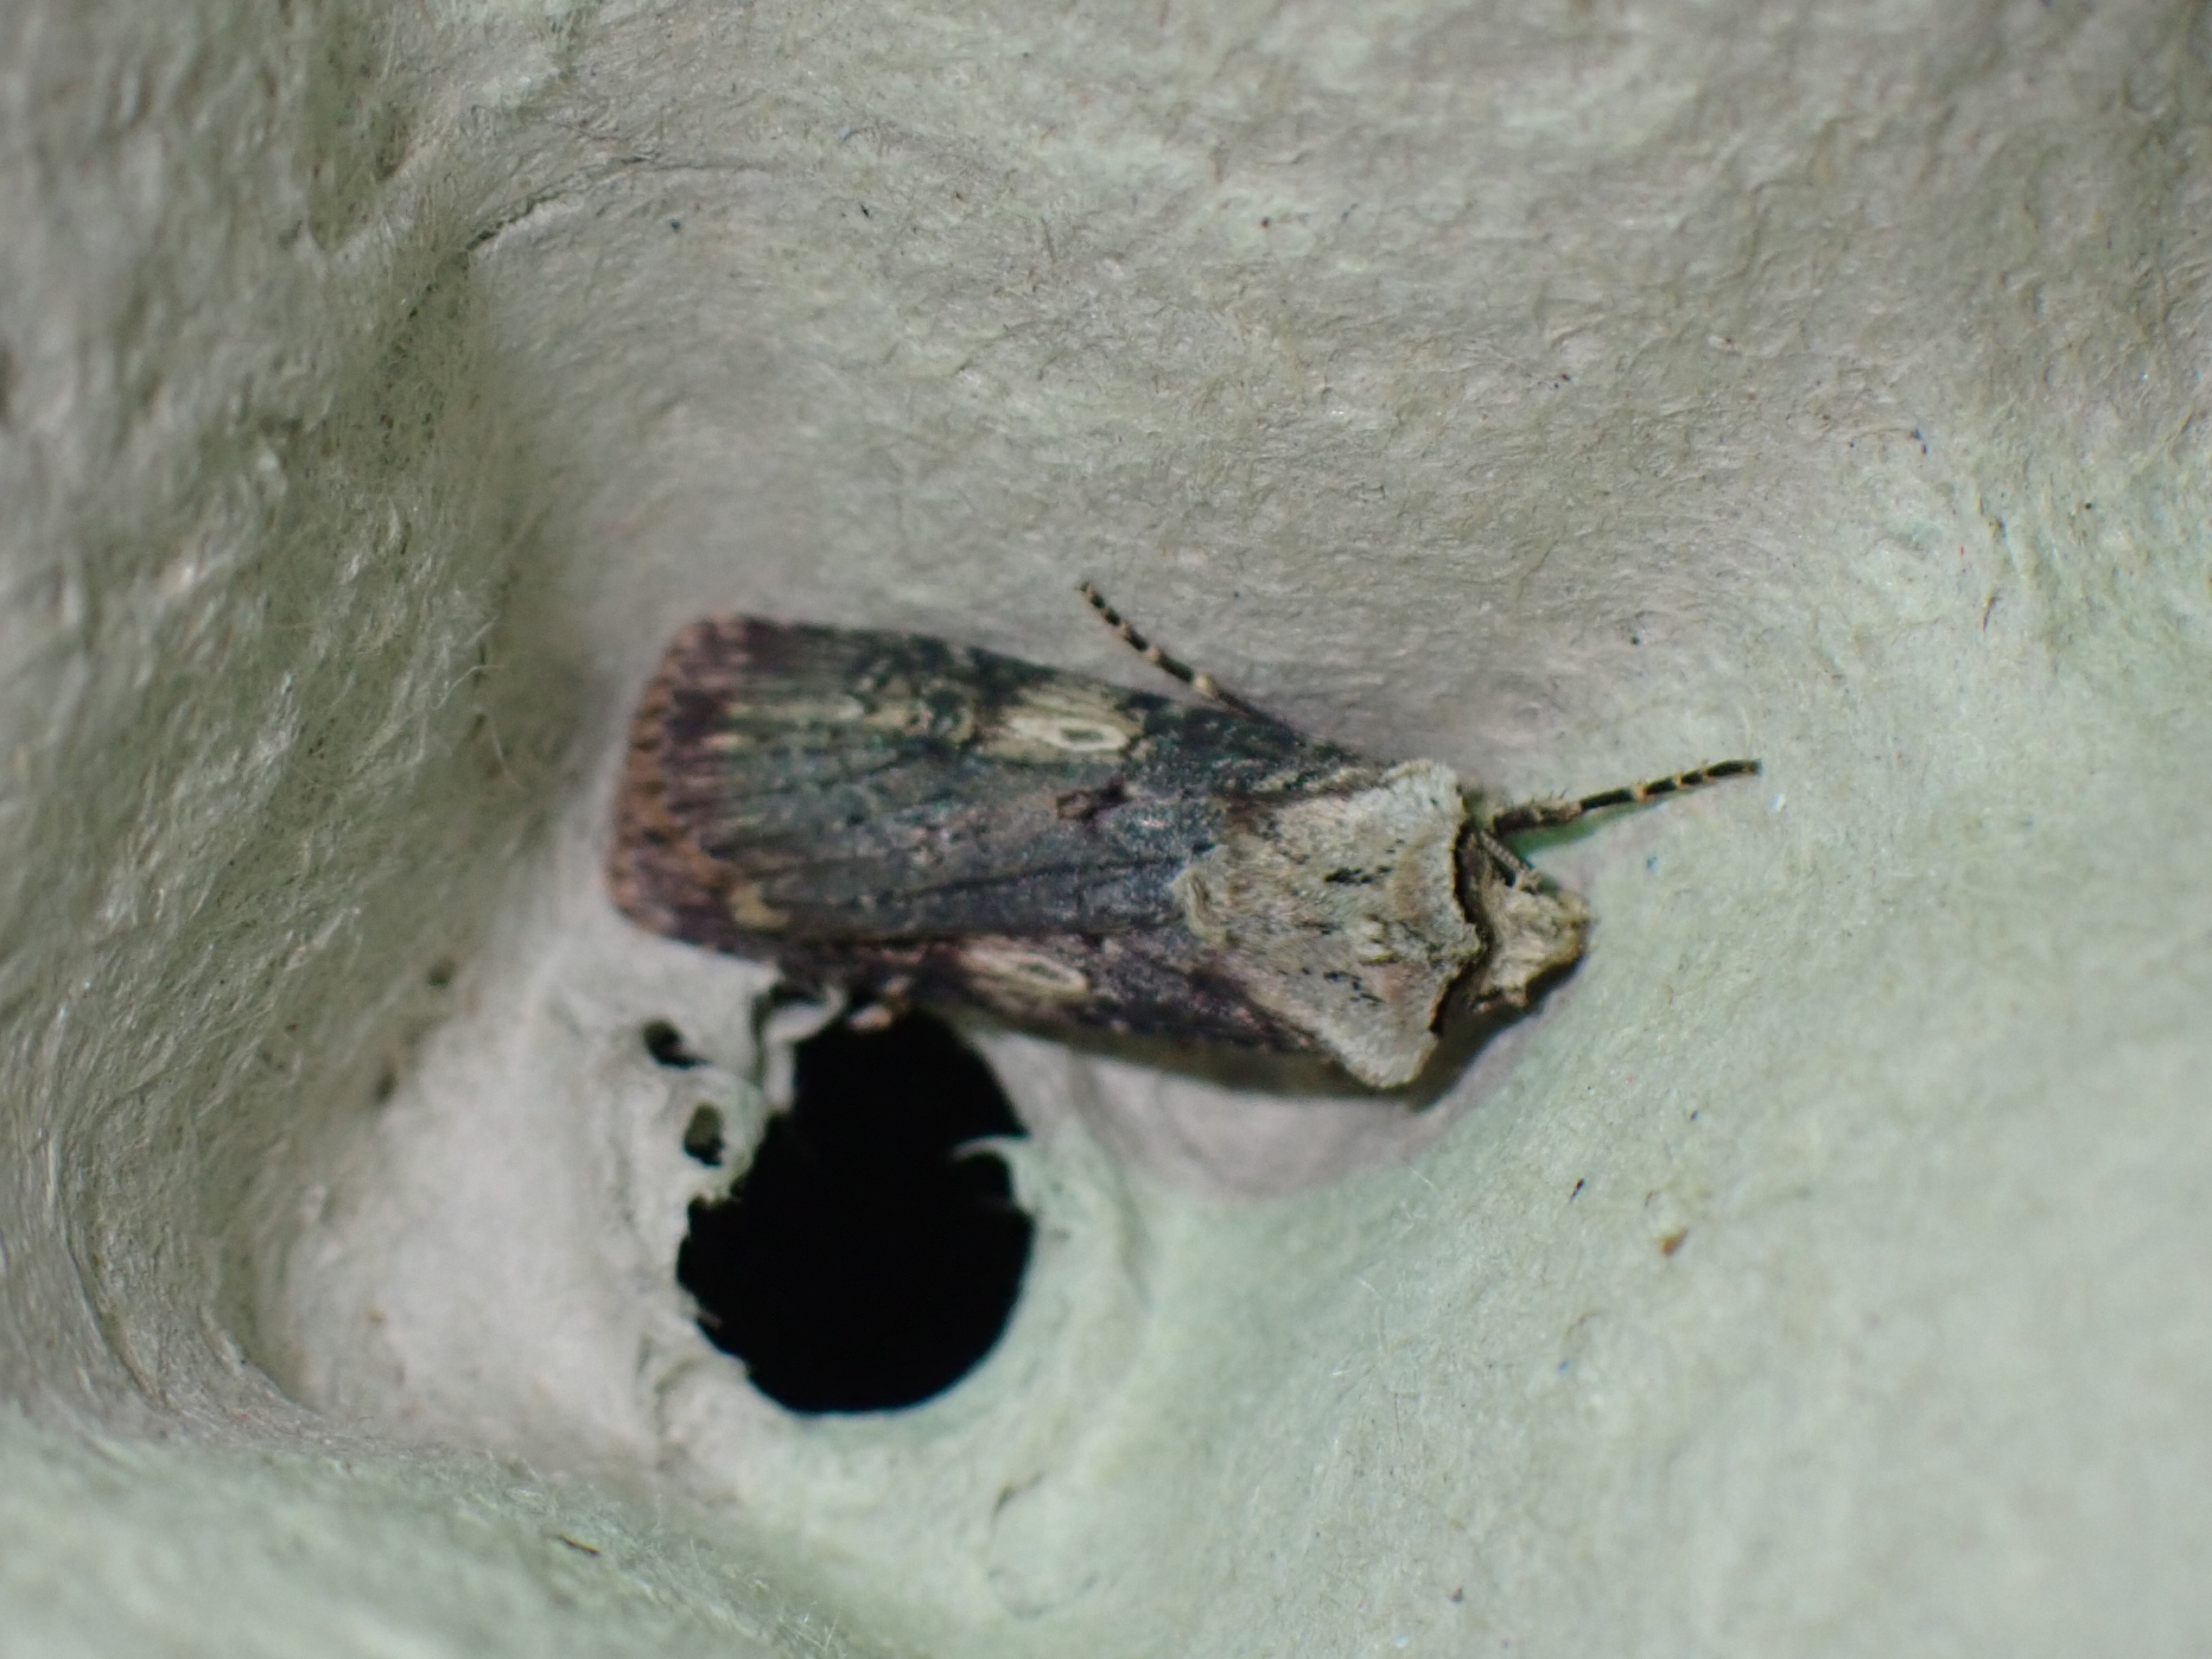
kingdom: Animalia
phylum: Arthropoda
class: Insecta
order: Lepidoptera
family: Noctuidae
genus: Agrotis
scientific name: Agrotis puta
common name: Frønnet landmand
